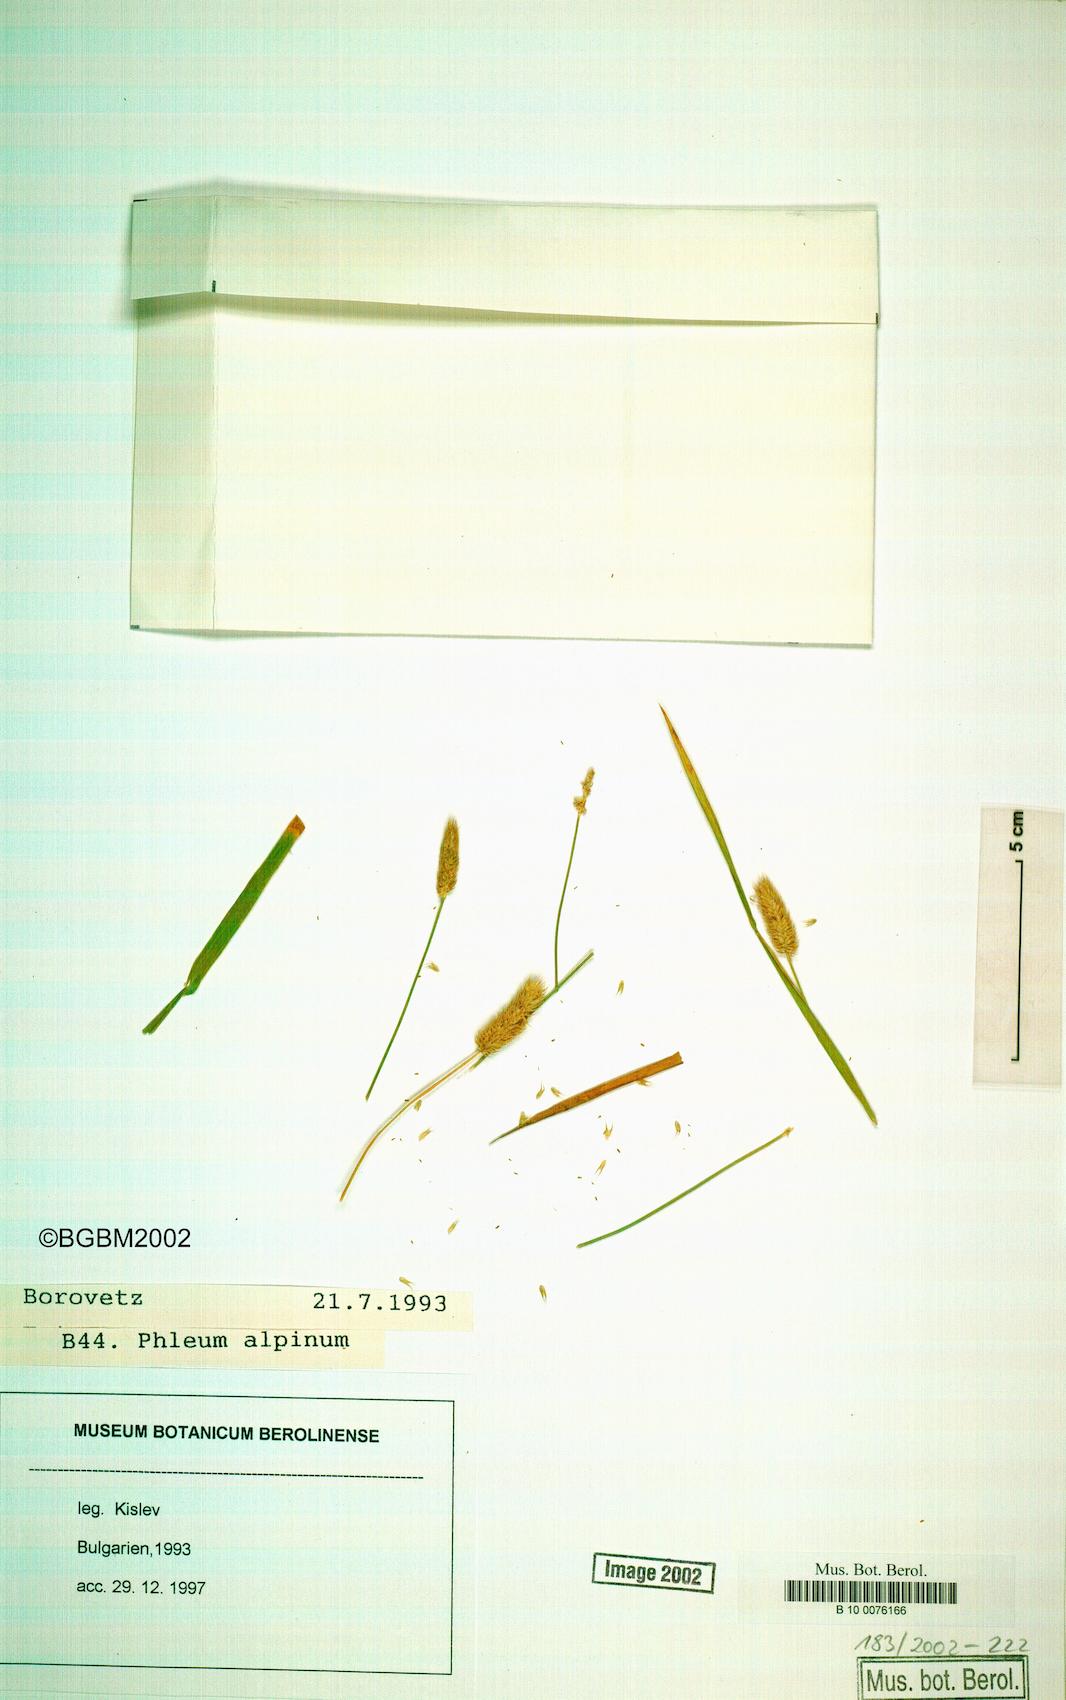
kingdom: Plantae
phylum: Tracheophyta
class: Liliopsida
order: Poales
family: Poaceae
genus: Phleum
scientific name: Phleum alpinum
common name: Alpine cat's-tail
